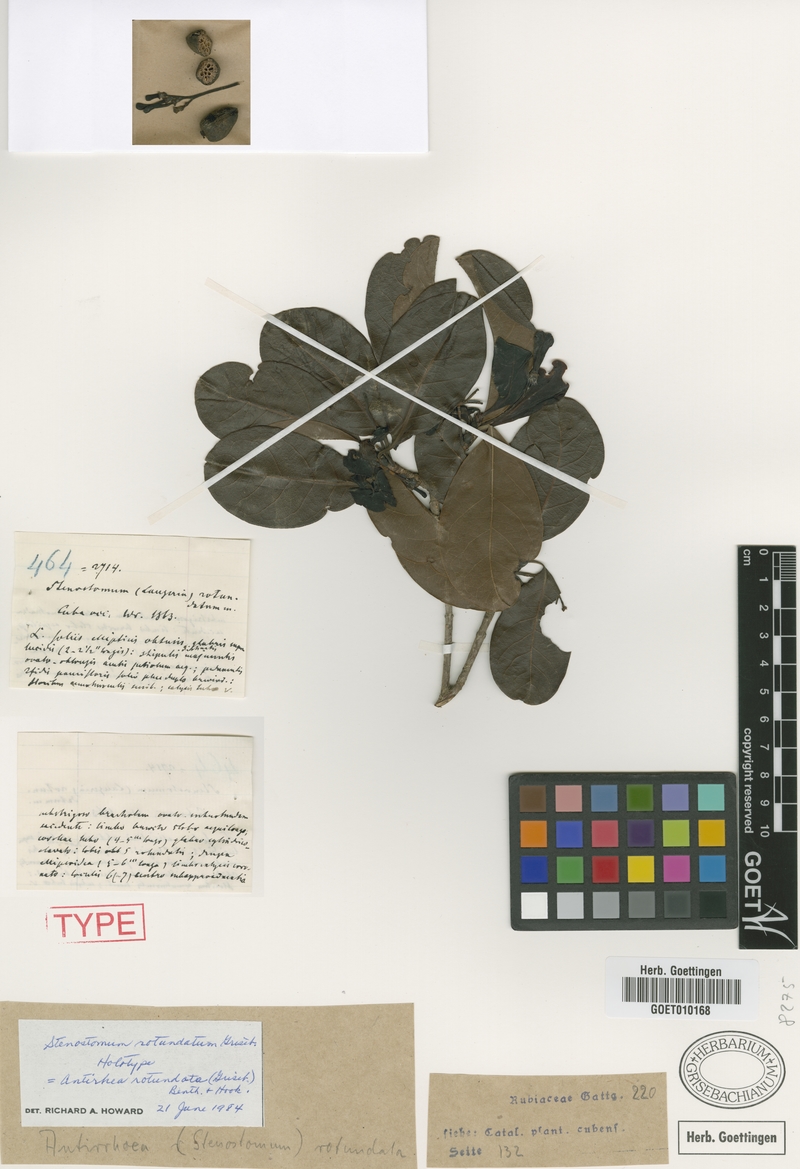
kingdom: Plantae
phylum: Tracheophyta
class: Magnoliopsida
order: Gentianales
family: Rubiaceae
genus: Stenostomum
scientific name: Stenostomum rotundatum
